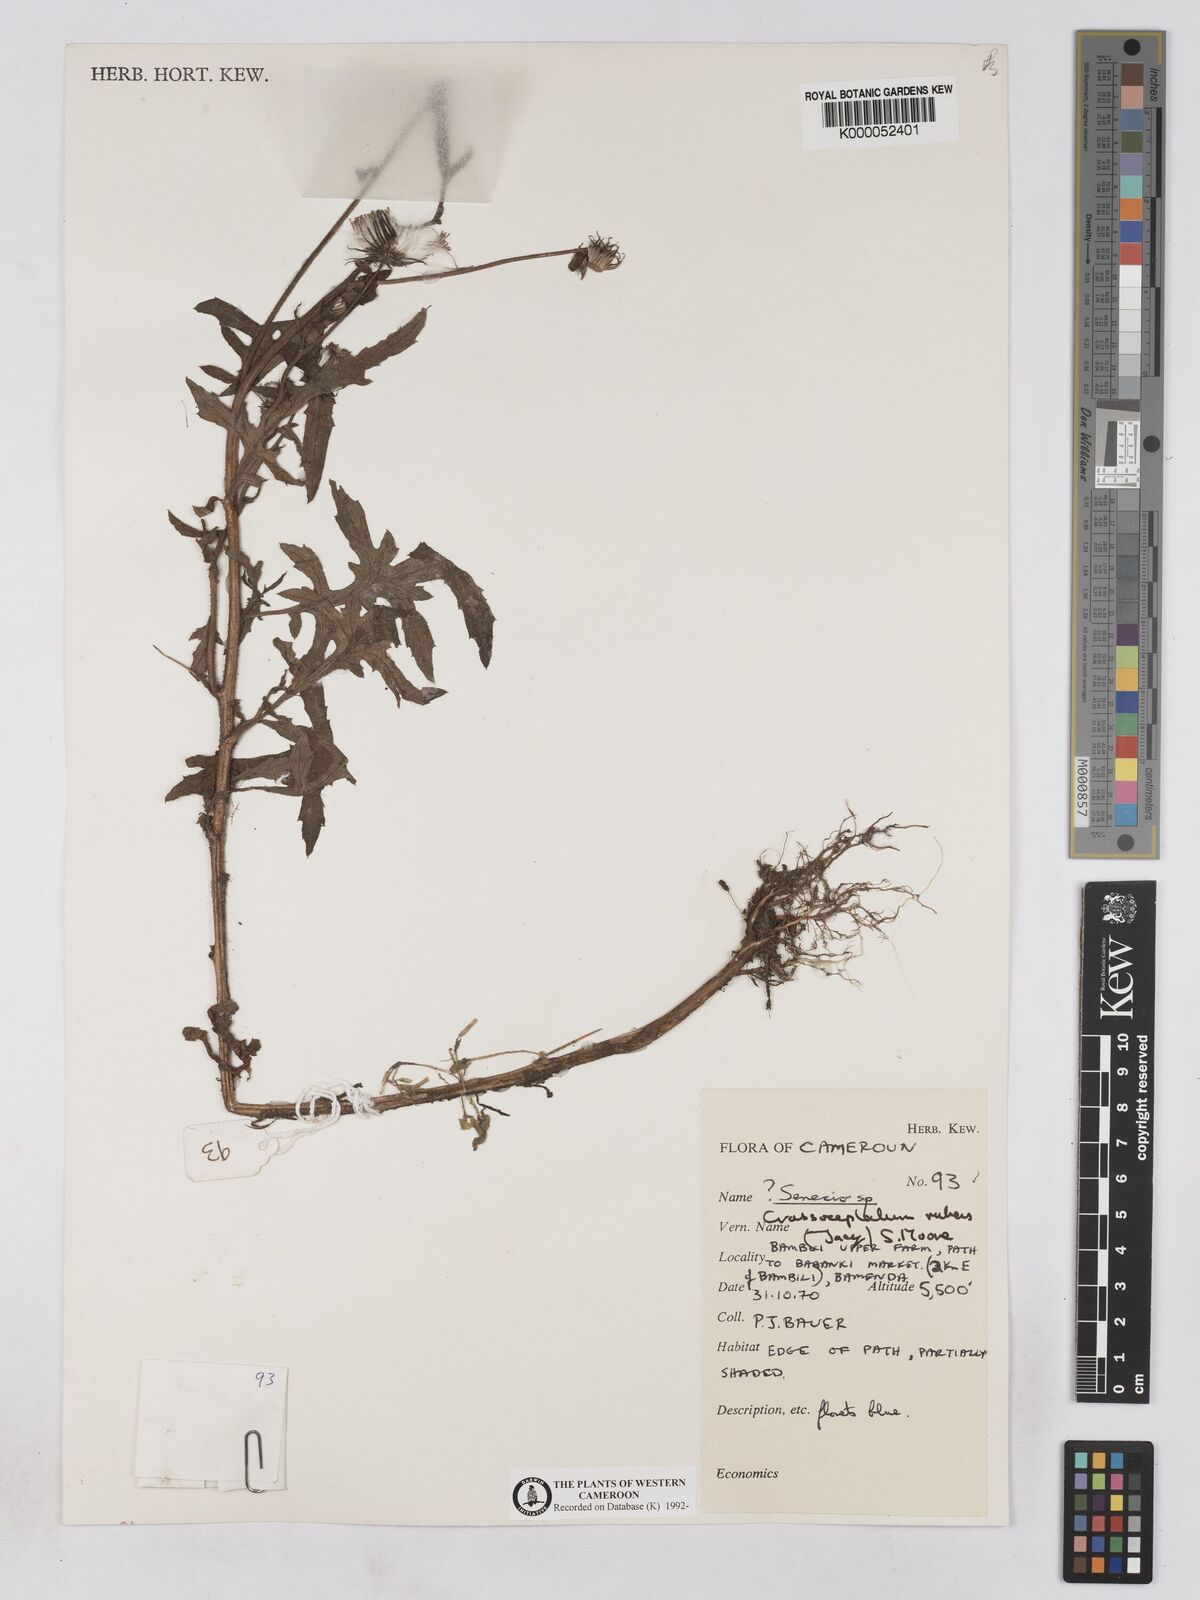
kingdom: Plantae
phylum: Tracheophyta
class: Magnoliopsida
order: Asterales
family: Asteraceae
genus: Crassocephalum
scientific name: Crassocephalum rubens
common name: Yoruban bologi
